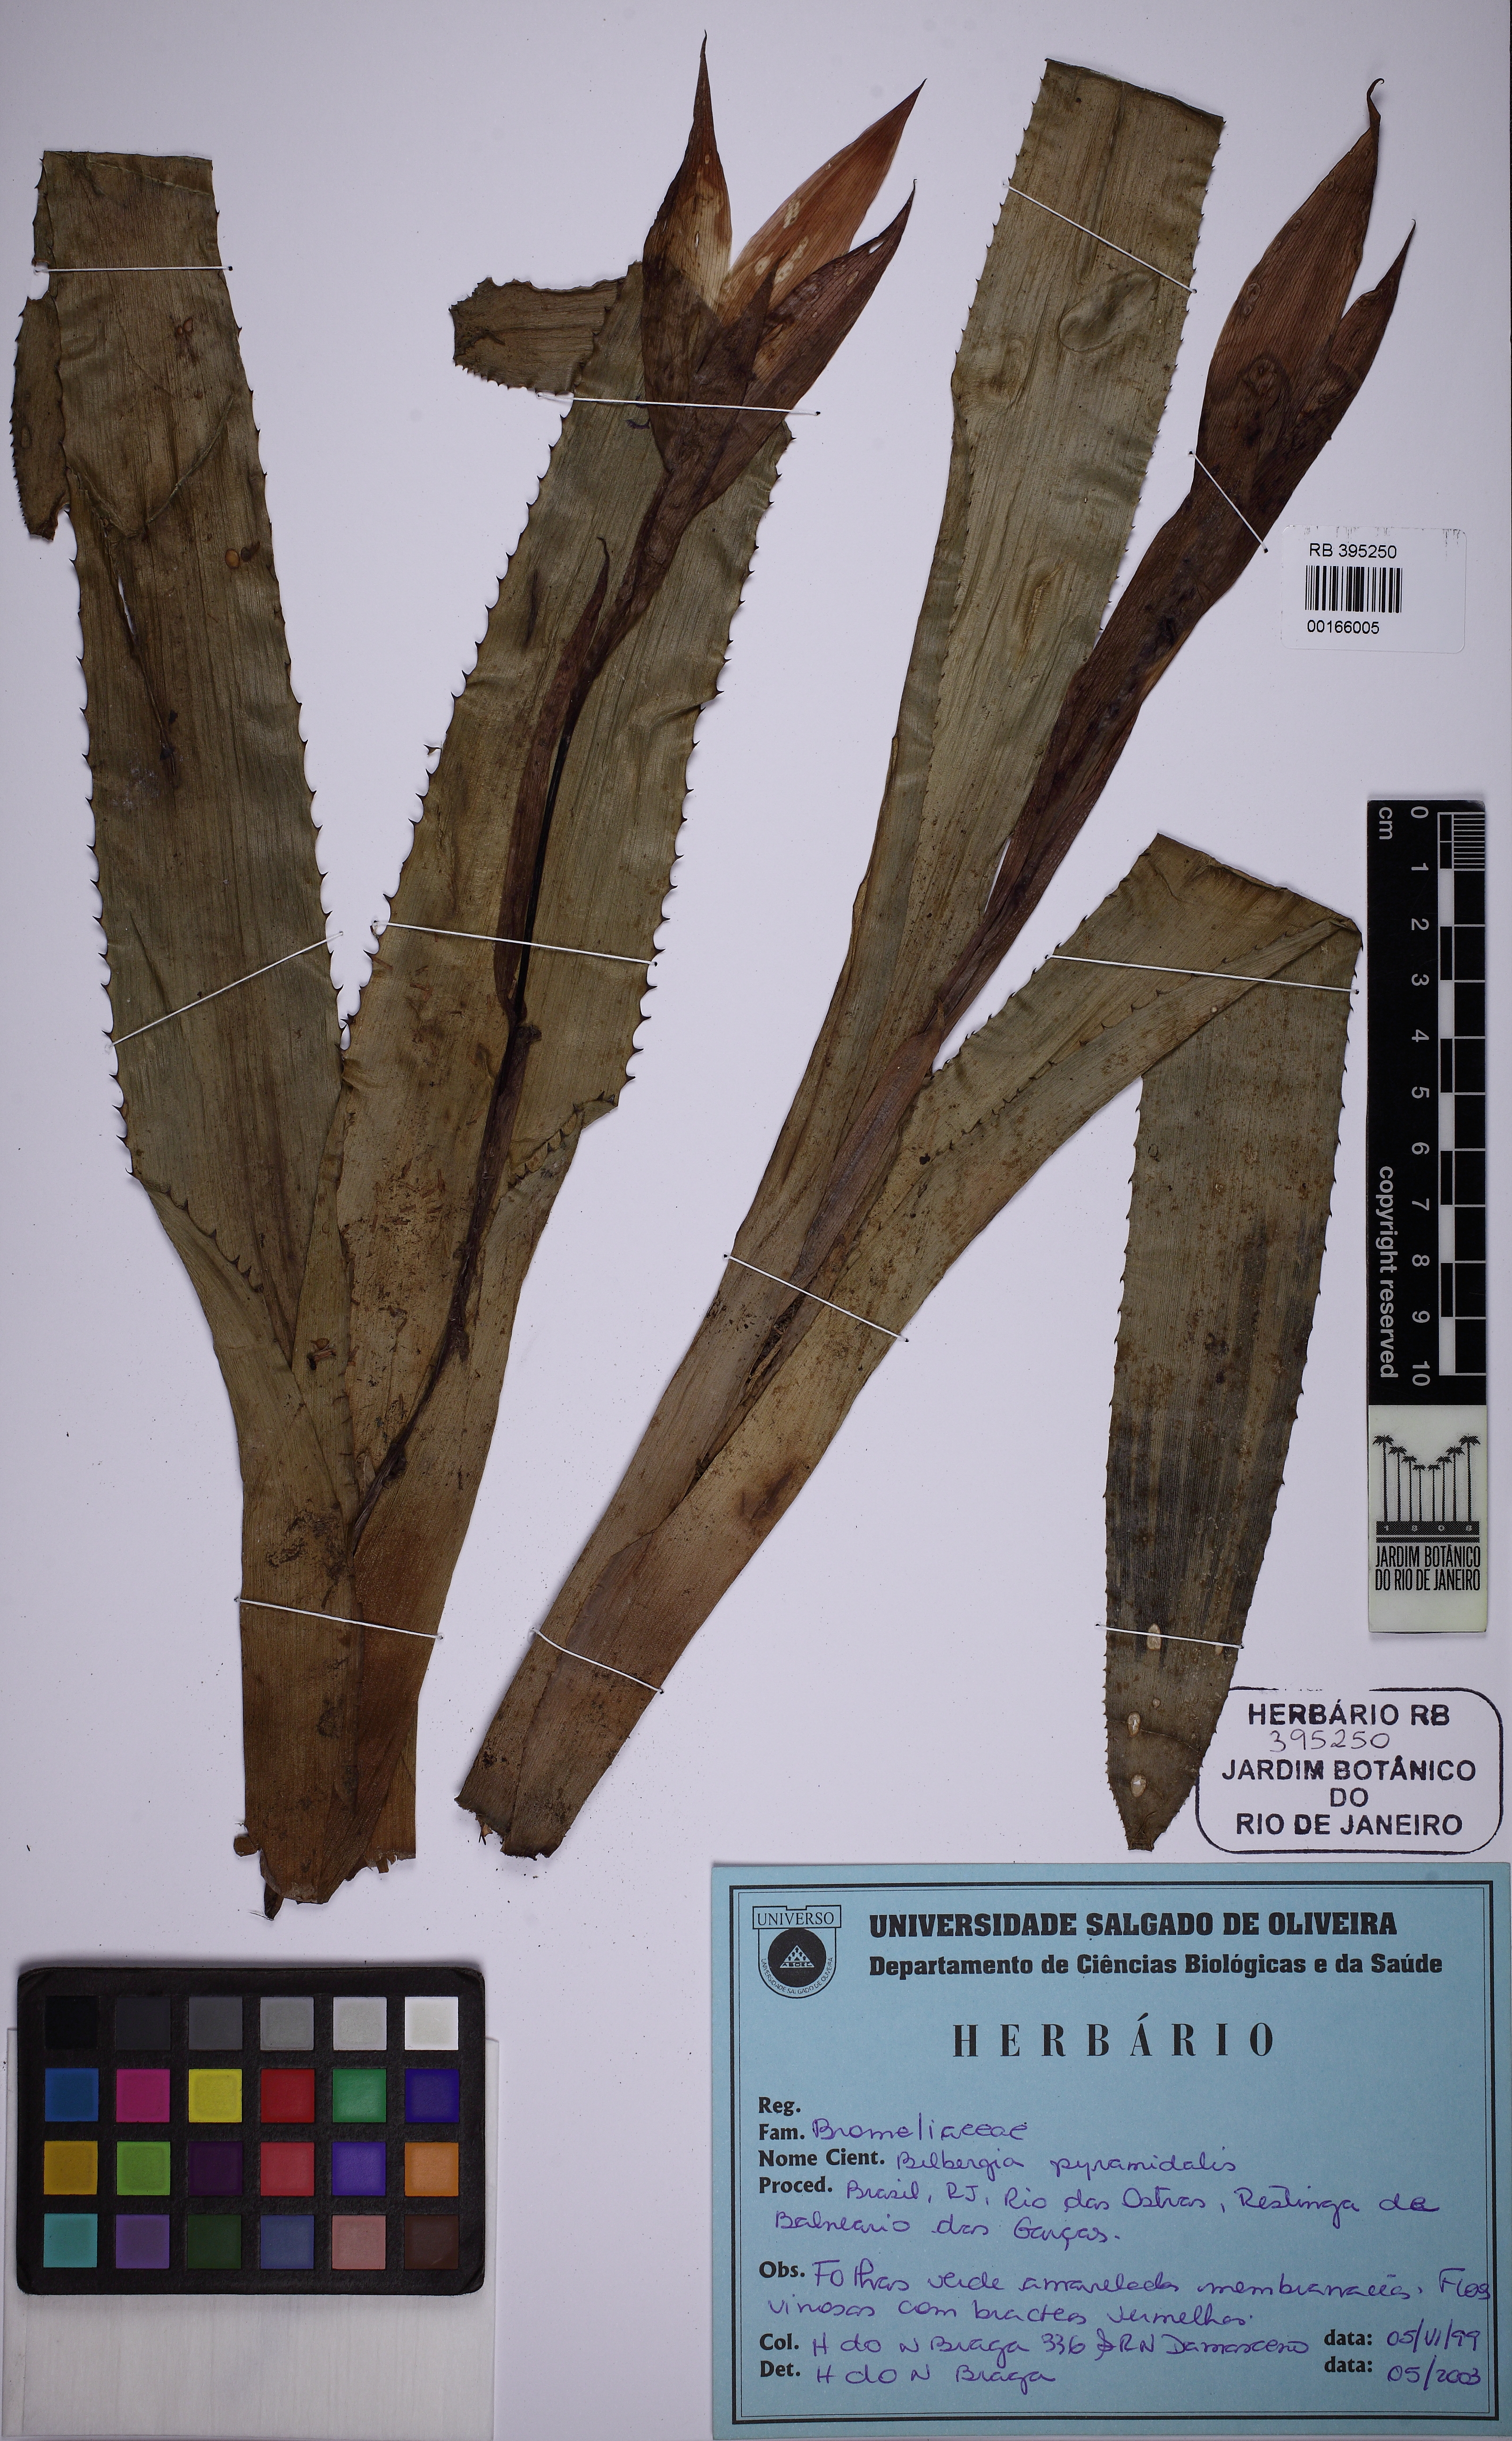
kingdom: Plantae
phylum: Tracheophyta
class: Liliopsida
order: Poales
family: Bromeliaceae
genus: Billbergia
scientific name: Billbergia pyramidalis
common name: Foolproofplant
